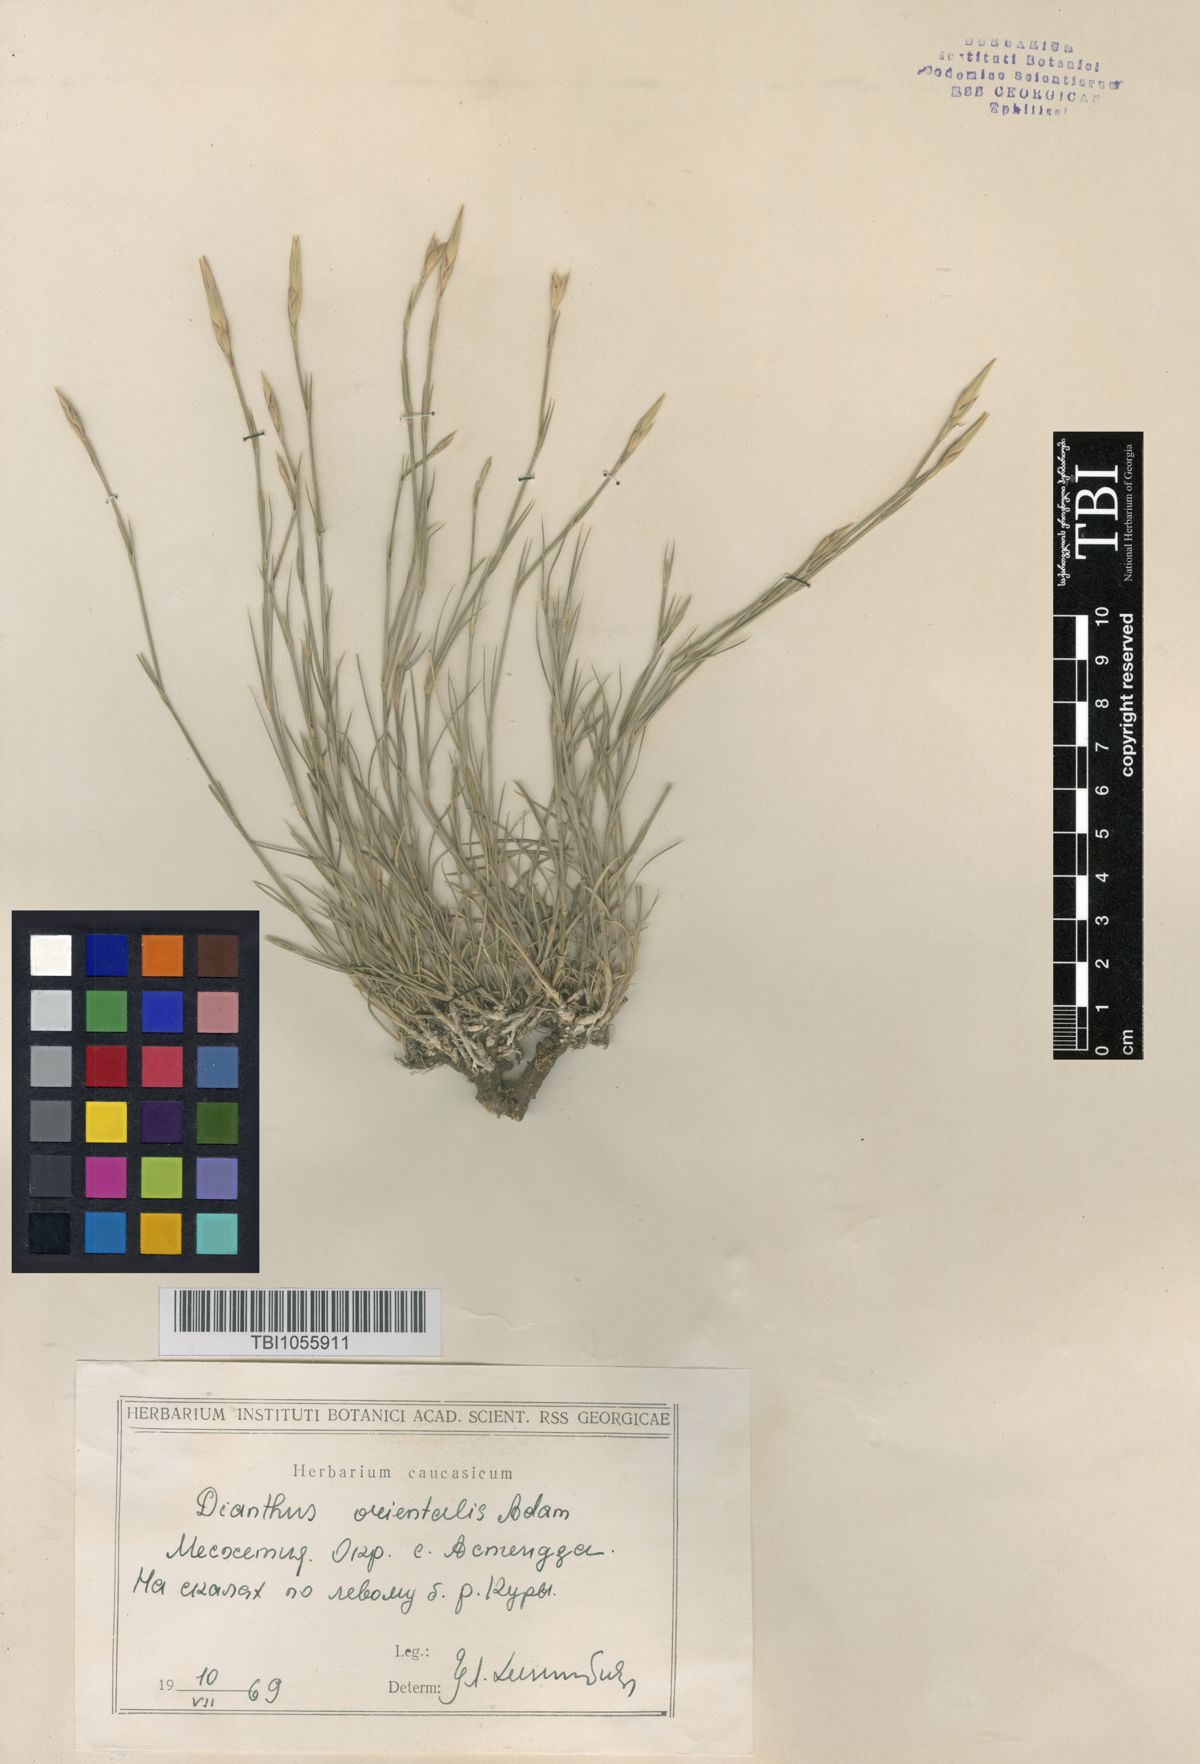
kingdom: Plantae
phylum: Tracheophyta
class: Magnoliopsida
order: Caryophyllales
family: Caryophyllaceae
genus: Dianthus
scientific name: Dianthus orientalis
